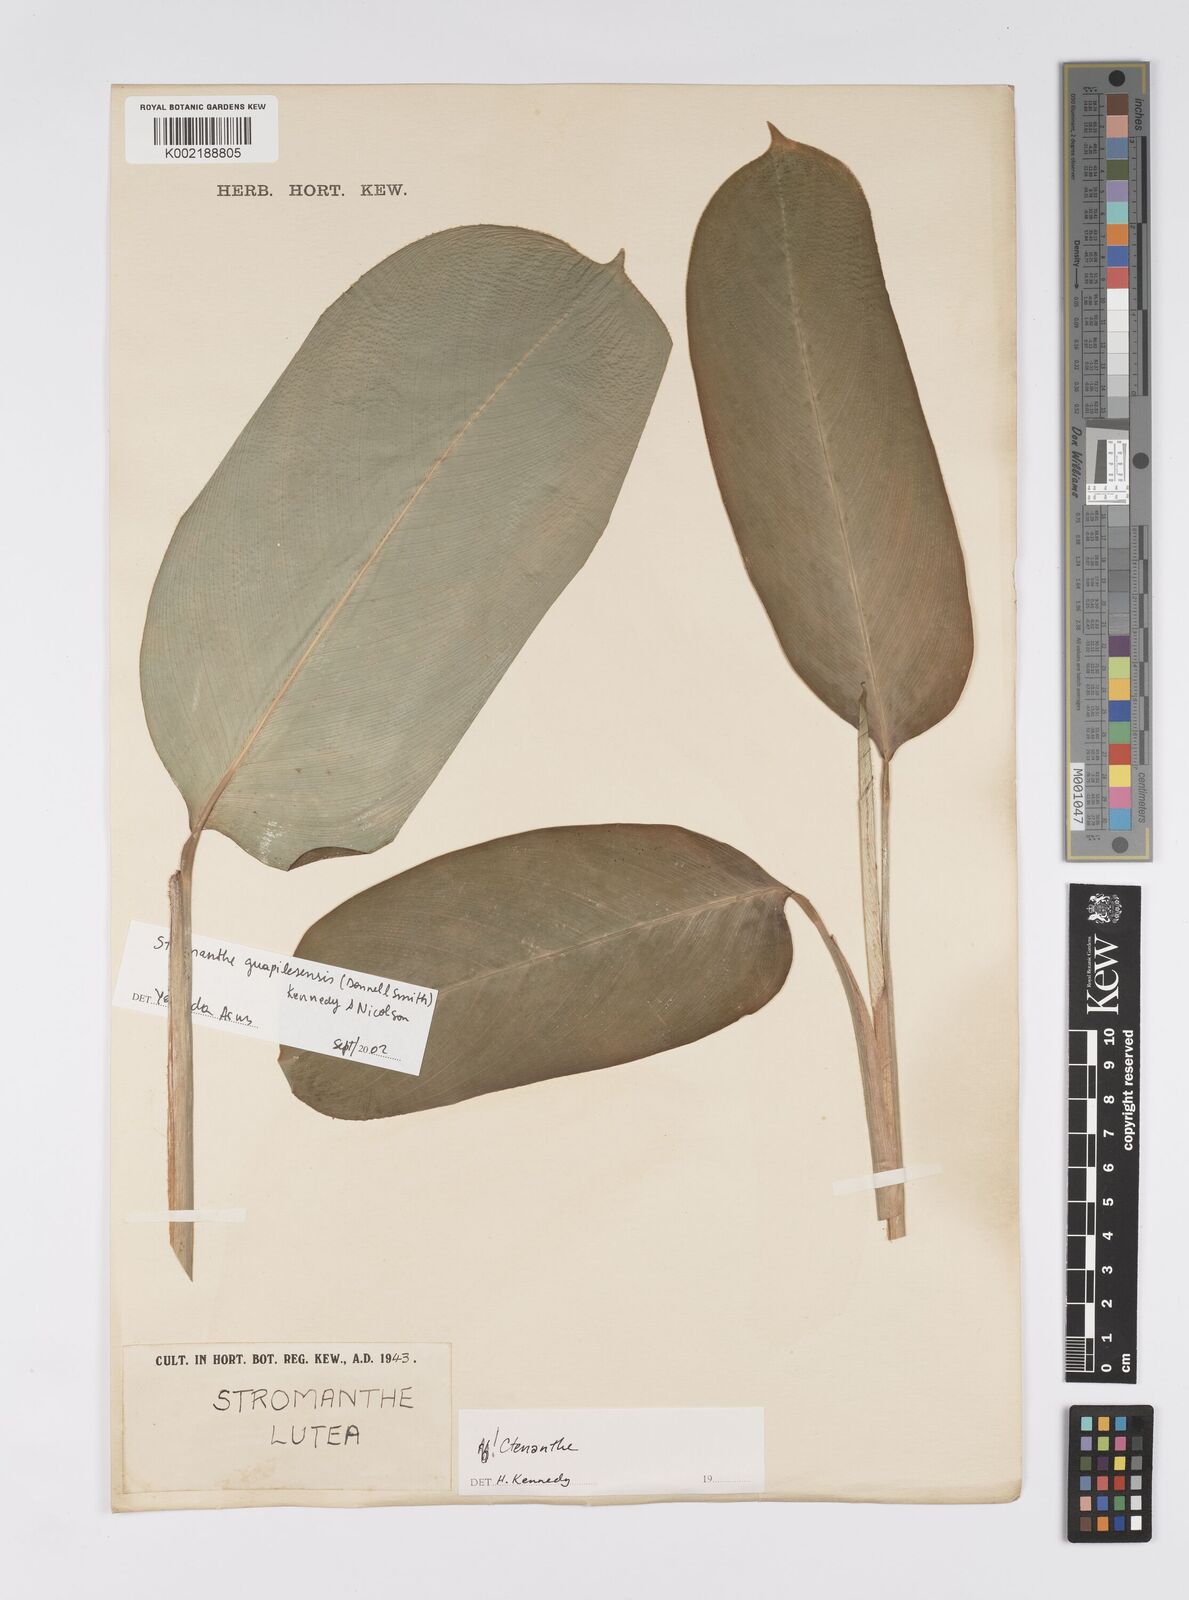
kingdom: Plantae
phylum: Tracheophyta
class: Liliopsida
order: Zingiberales
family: Marantaceae
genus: Stromanthe
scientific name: Stromanthe jacquinii
